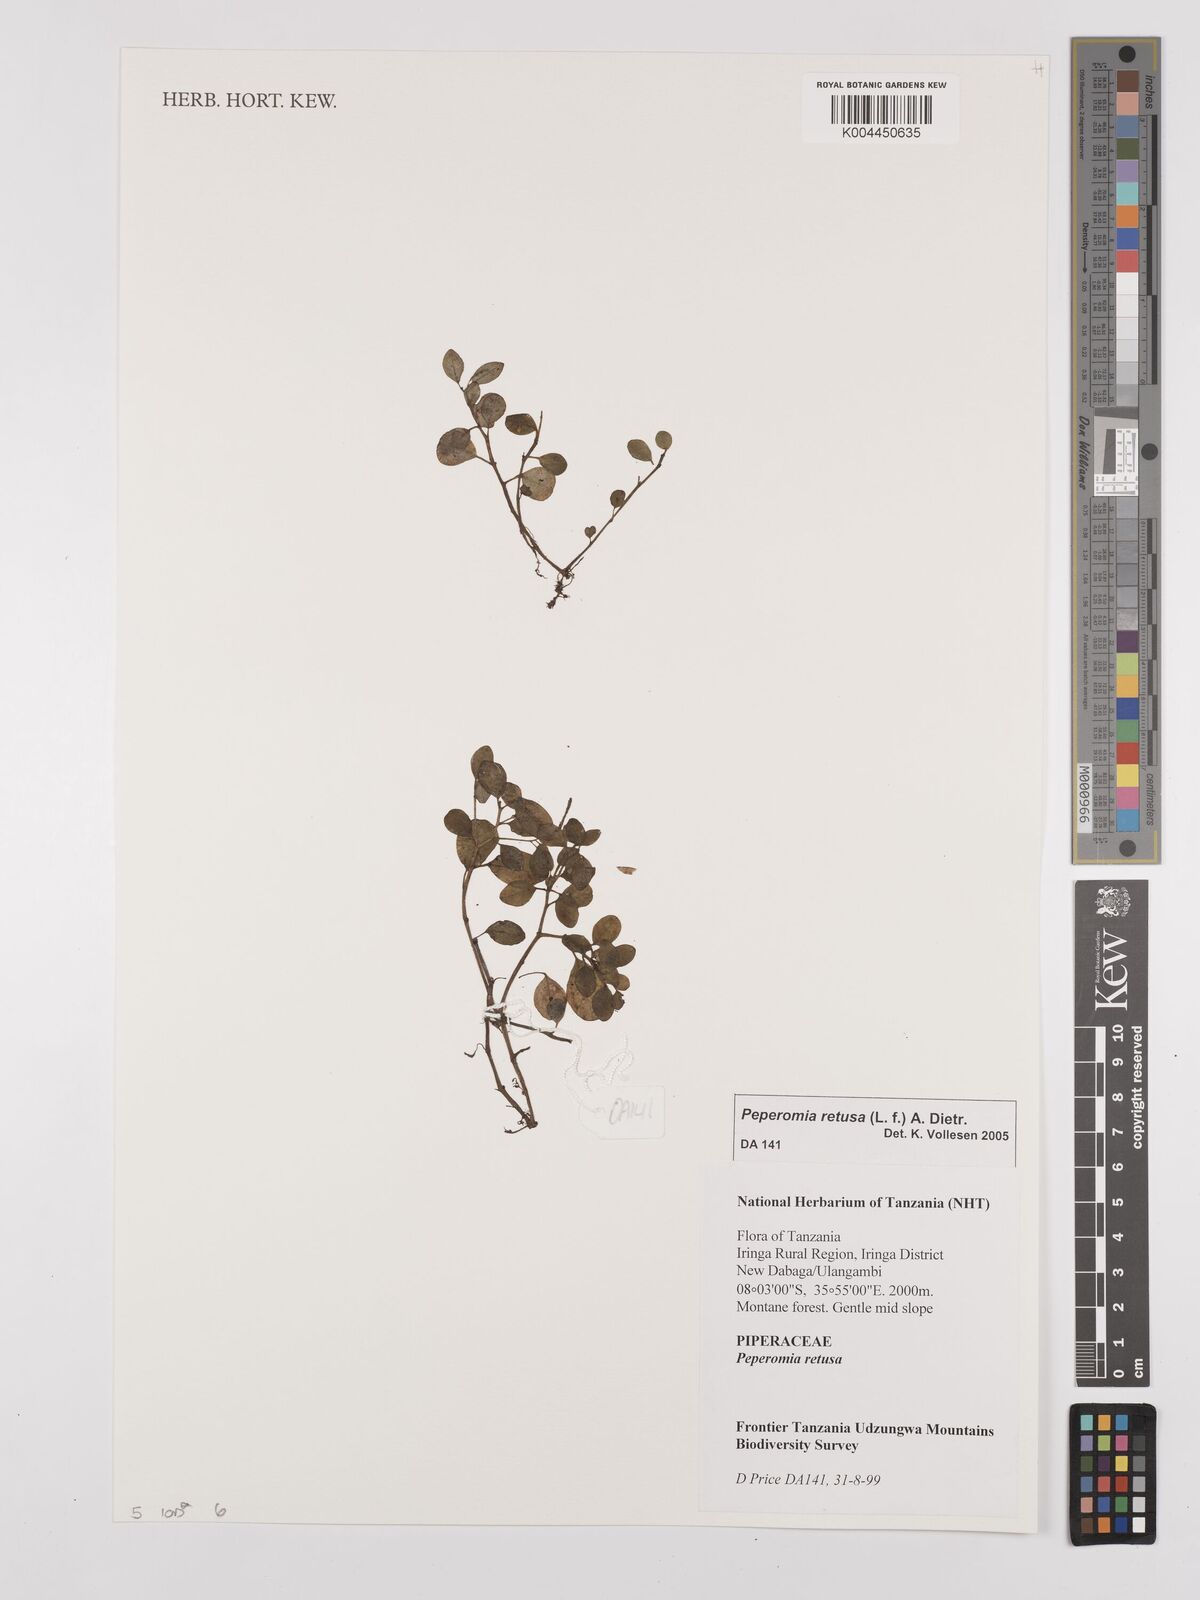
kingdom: Plantae
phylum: Tracheophyta
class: Magnoliopsida
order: Piperales
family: Piperaceae
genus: Peperomia
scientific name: Peperomia retusa
